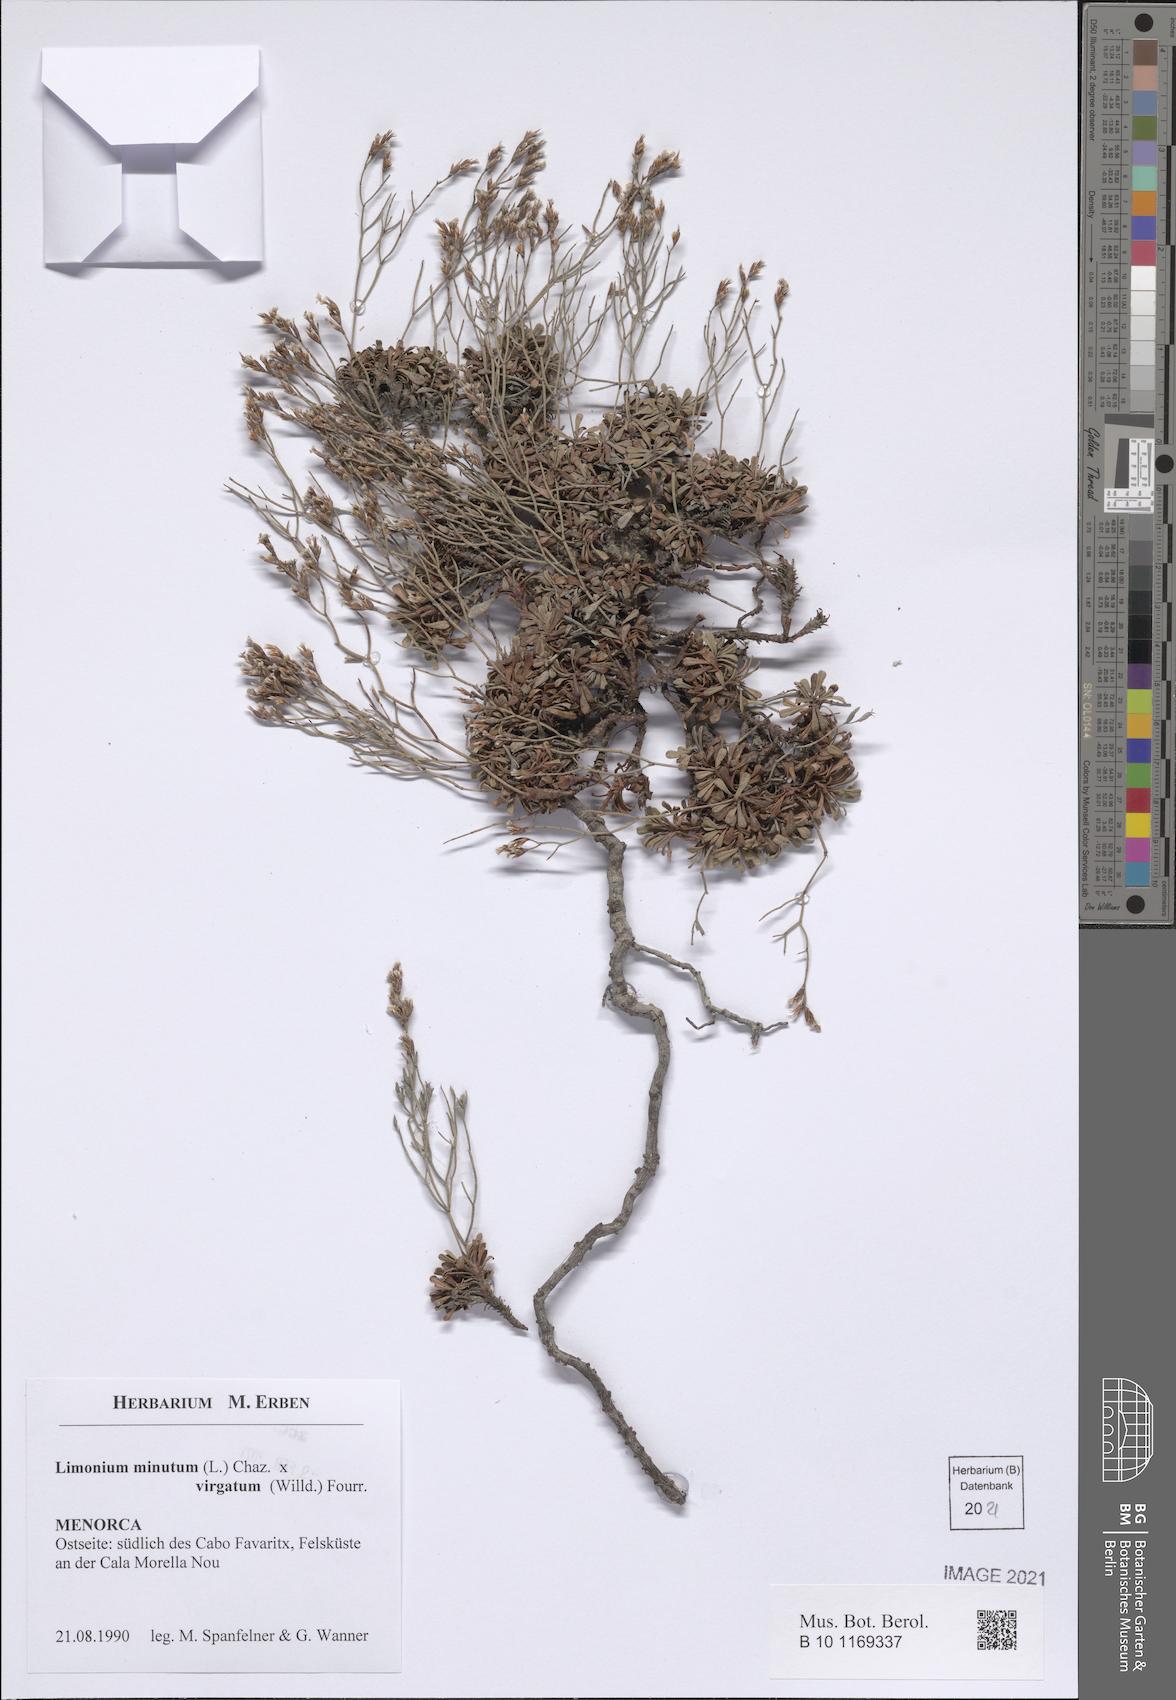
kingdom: Plantae
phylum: Tracheophyta
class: Magnoliopsida
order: Caryophyllales
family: Plumbaginaceae
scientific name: Plumbaginaceae
